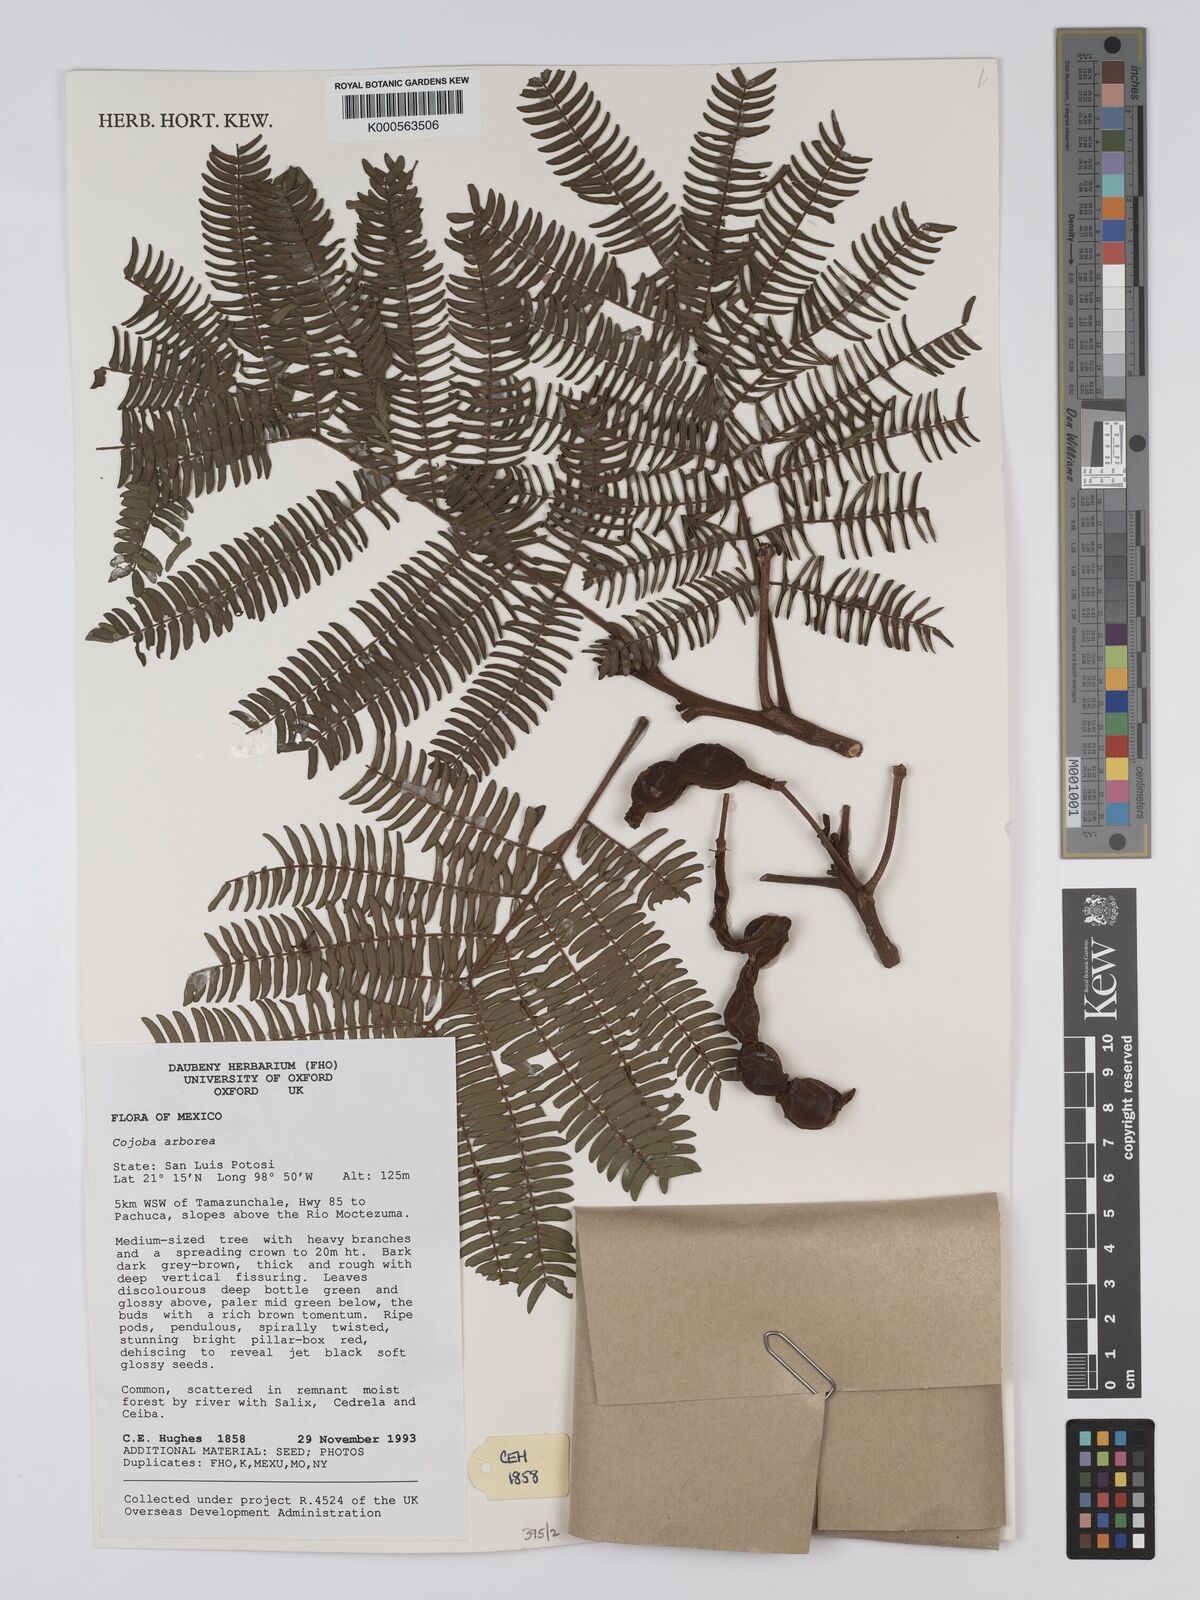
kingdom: Plantae
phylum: Tracheophyta
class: Magnoliopsida
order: Fabales
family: Fabaceae
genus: Cojoba
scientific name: Cojoba arborea
